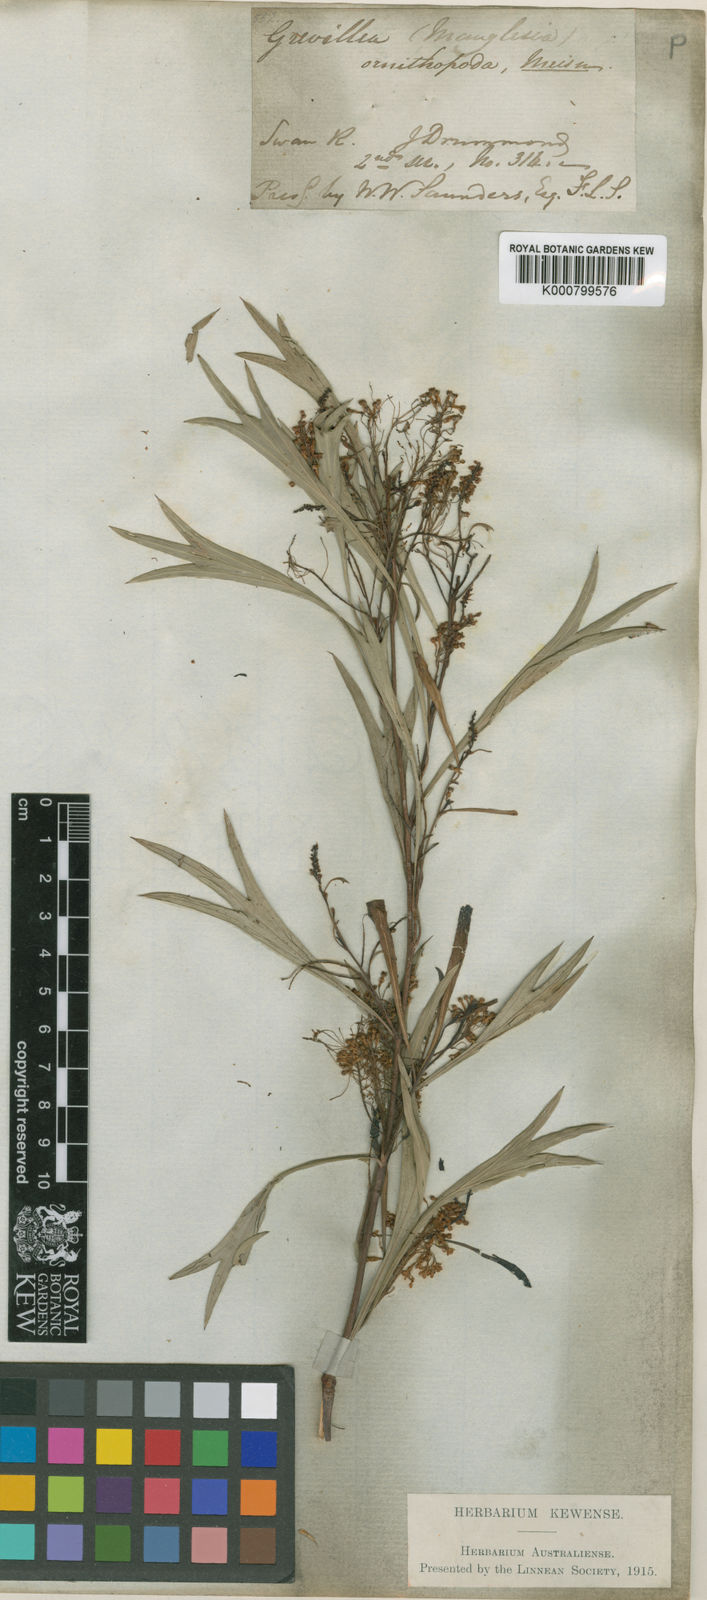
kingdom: Plantae
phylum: Tracheophyta
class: Magnoliopsida
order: Proteales
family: Proteaceae
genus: Grevillea
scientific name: Grevillea manglesii
